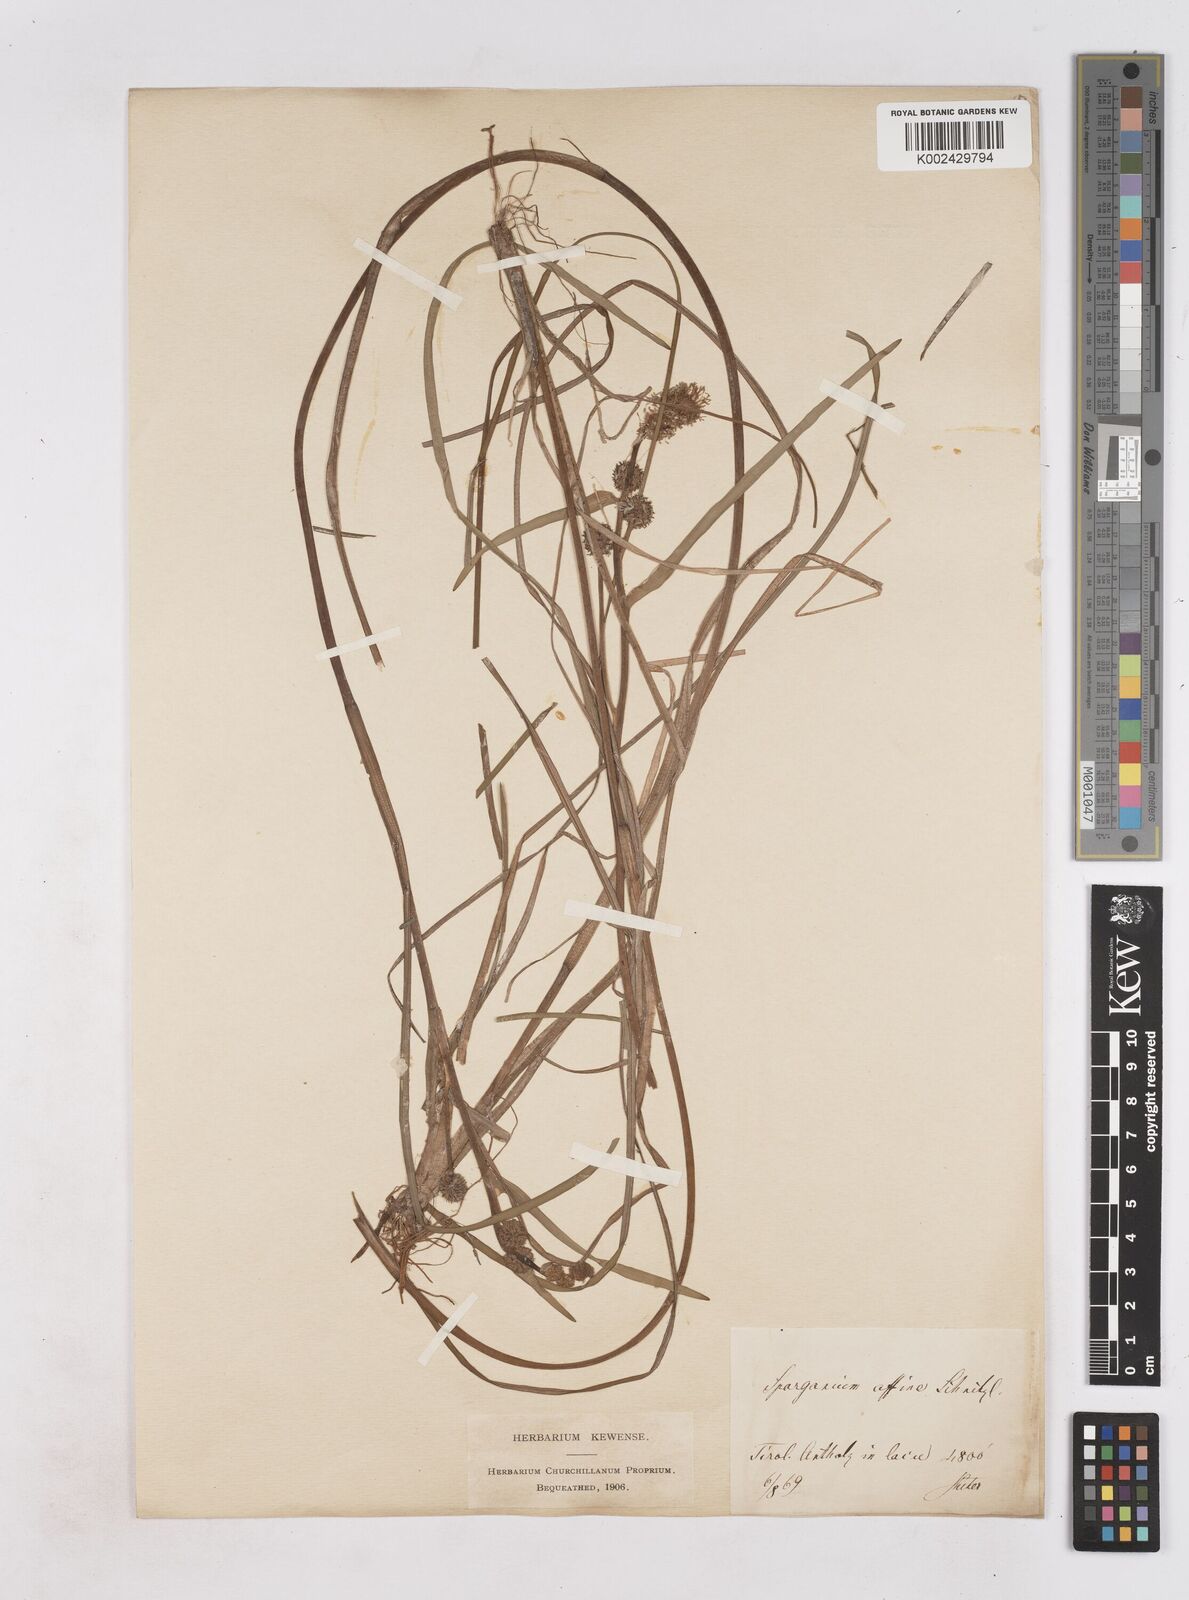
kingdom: Plantae
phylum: Tracheophyta
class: Liliopsida
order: Poales
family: Typhaceae
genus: Sparganium
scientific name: Sparganium angustifolium
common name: Floating bur-reed
